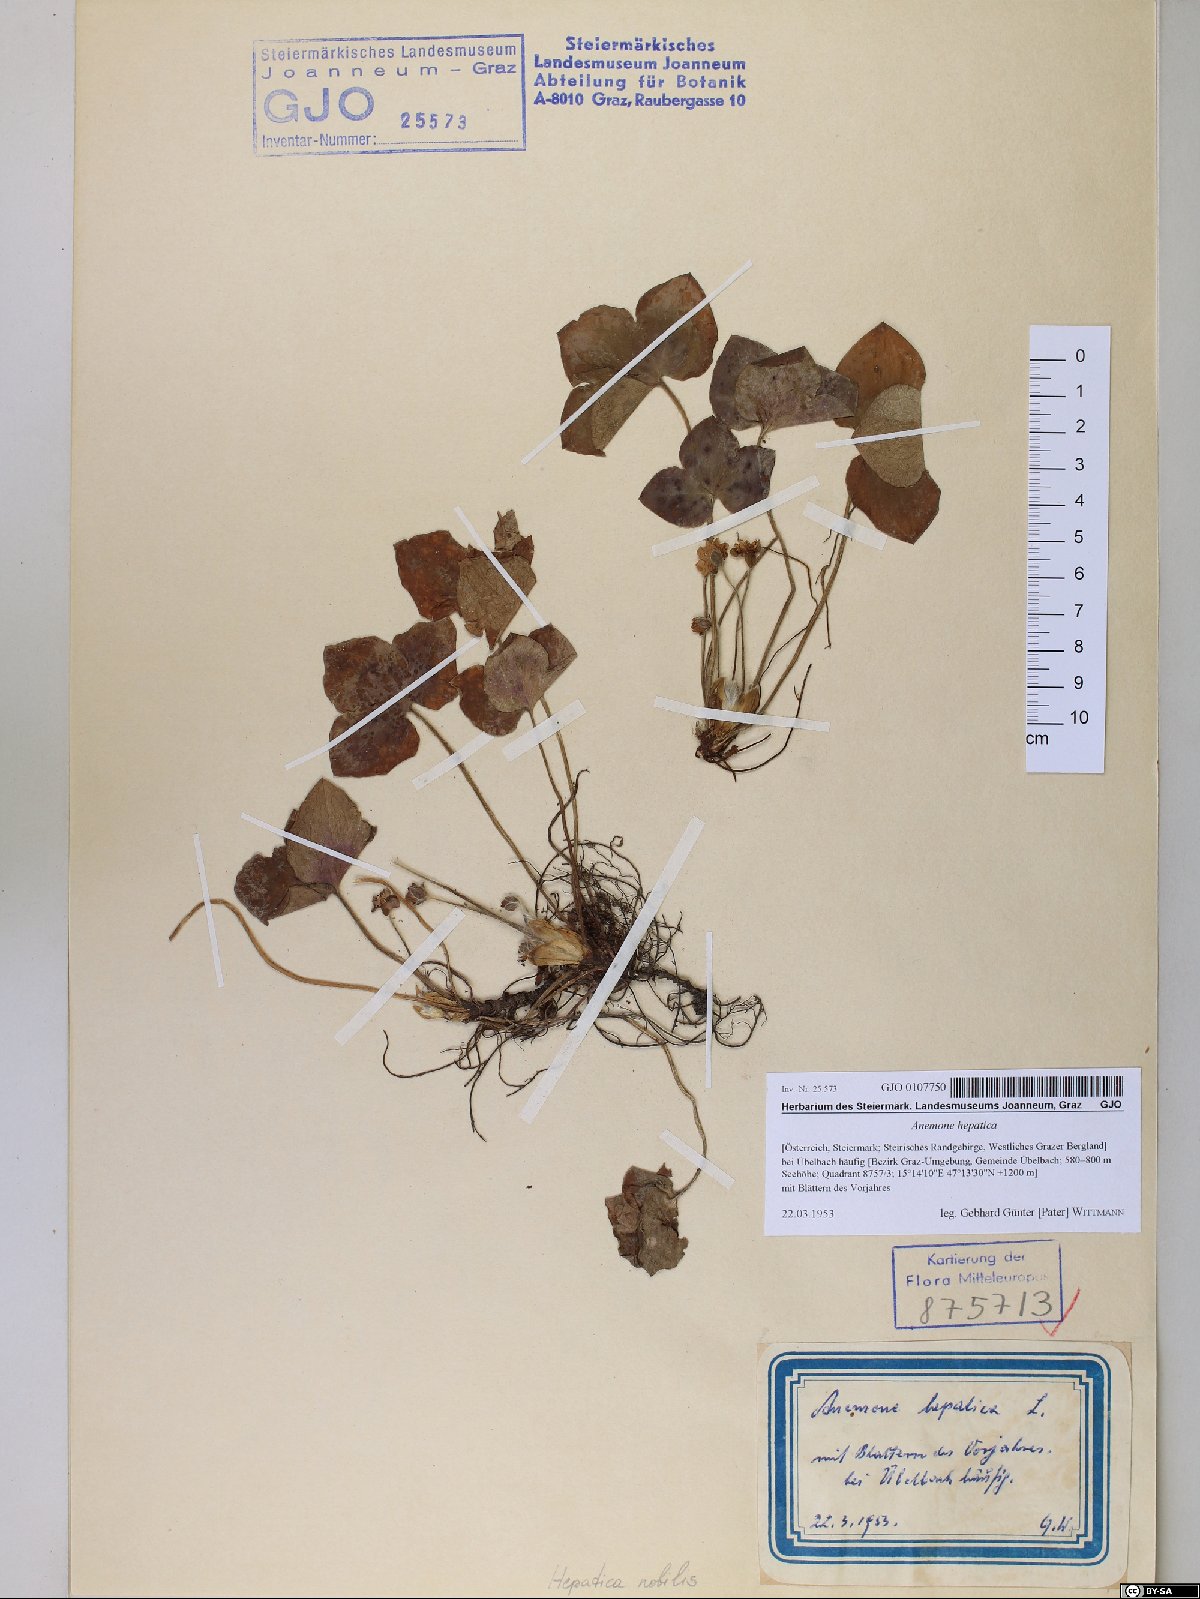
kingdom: Plantae
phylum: Tracheophyta
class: Magnoliopsida
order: Ranunculales
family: Ranunculaceae
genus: Hepatica
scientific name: Hepatica nobilis
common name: Liverleaf
